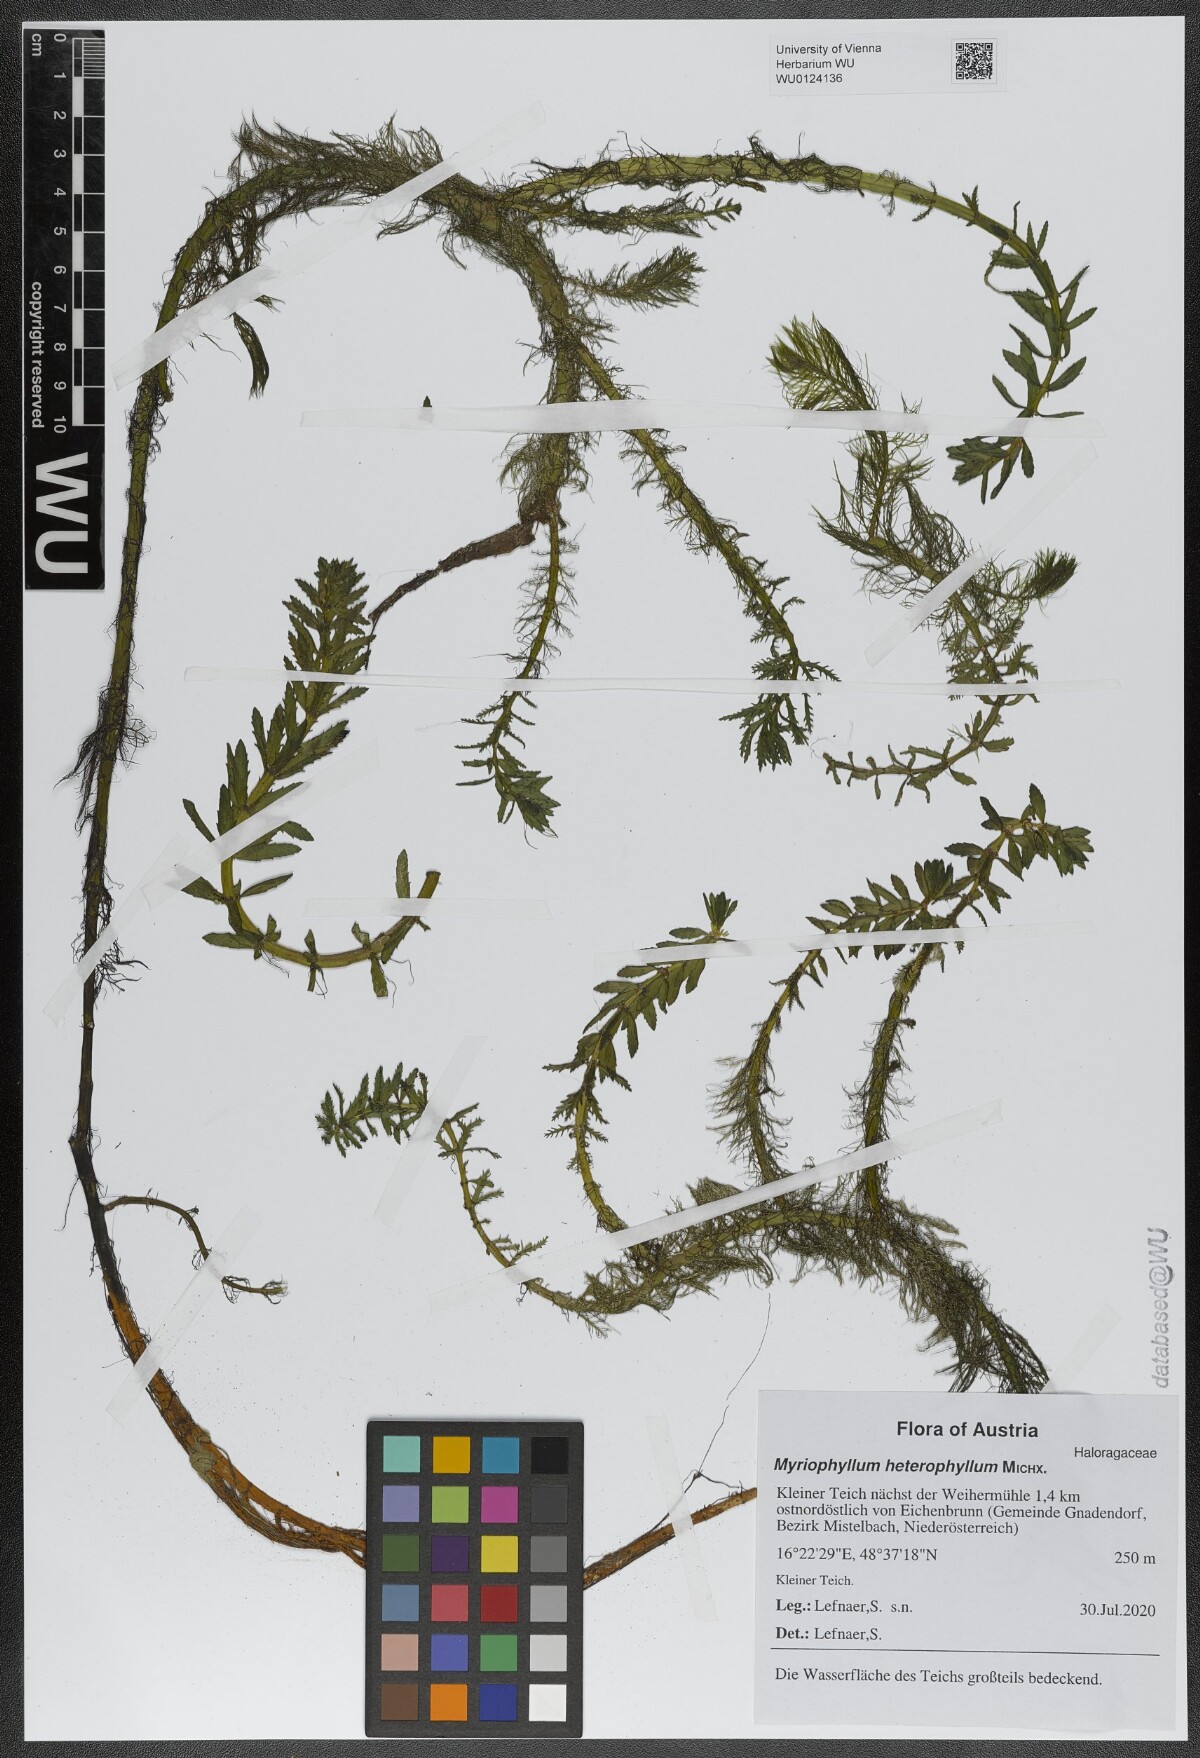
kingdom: Plantae
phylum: Tracheophyta
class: Magnoliopsida
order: Saxifragales
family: Haloragaceae
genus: Myriophyllum
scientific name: Myriophyllum heterophyllum
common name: Variable watermilfoil
